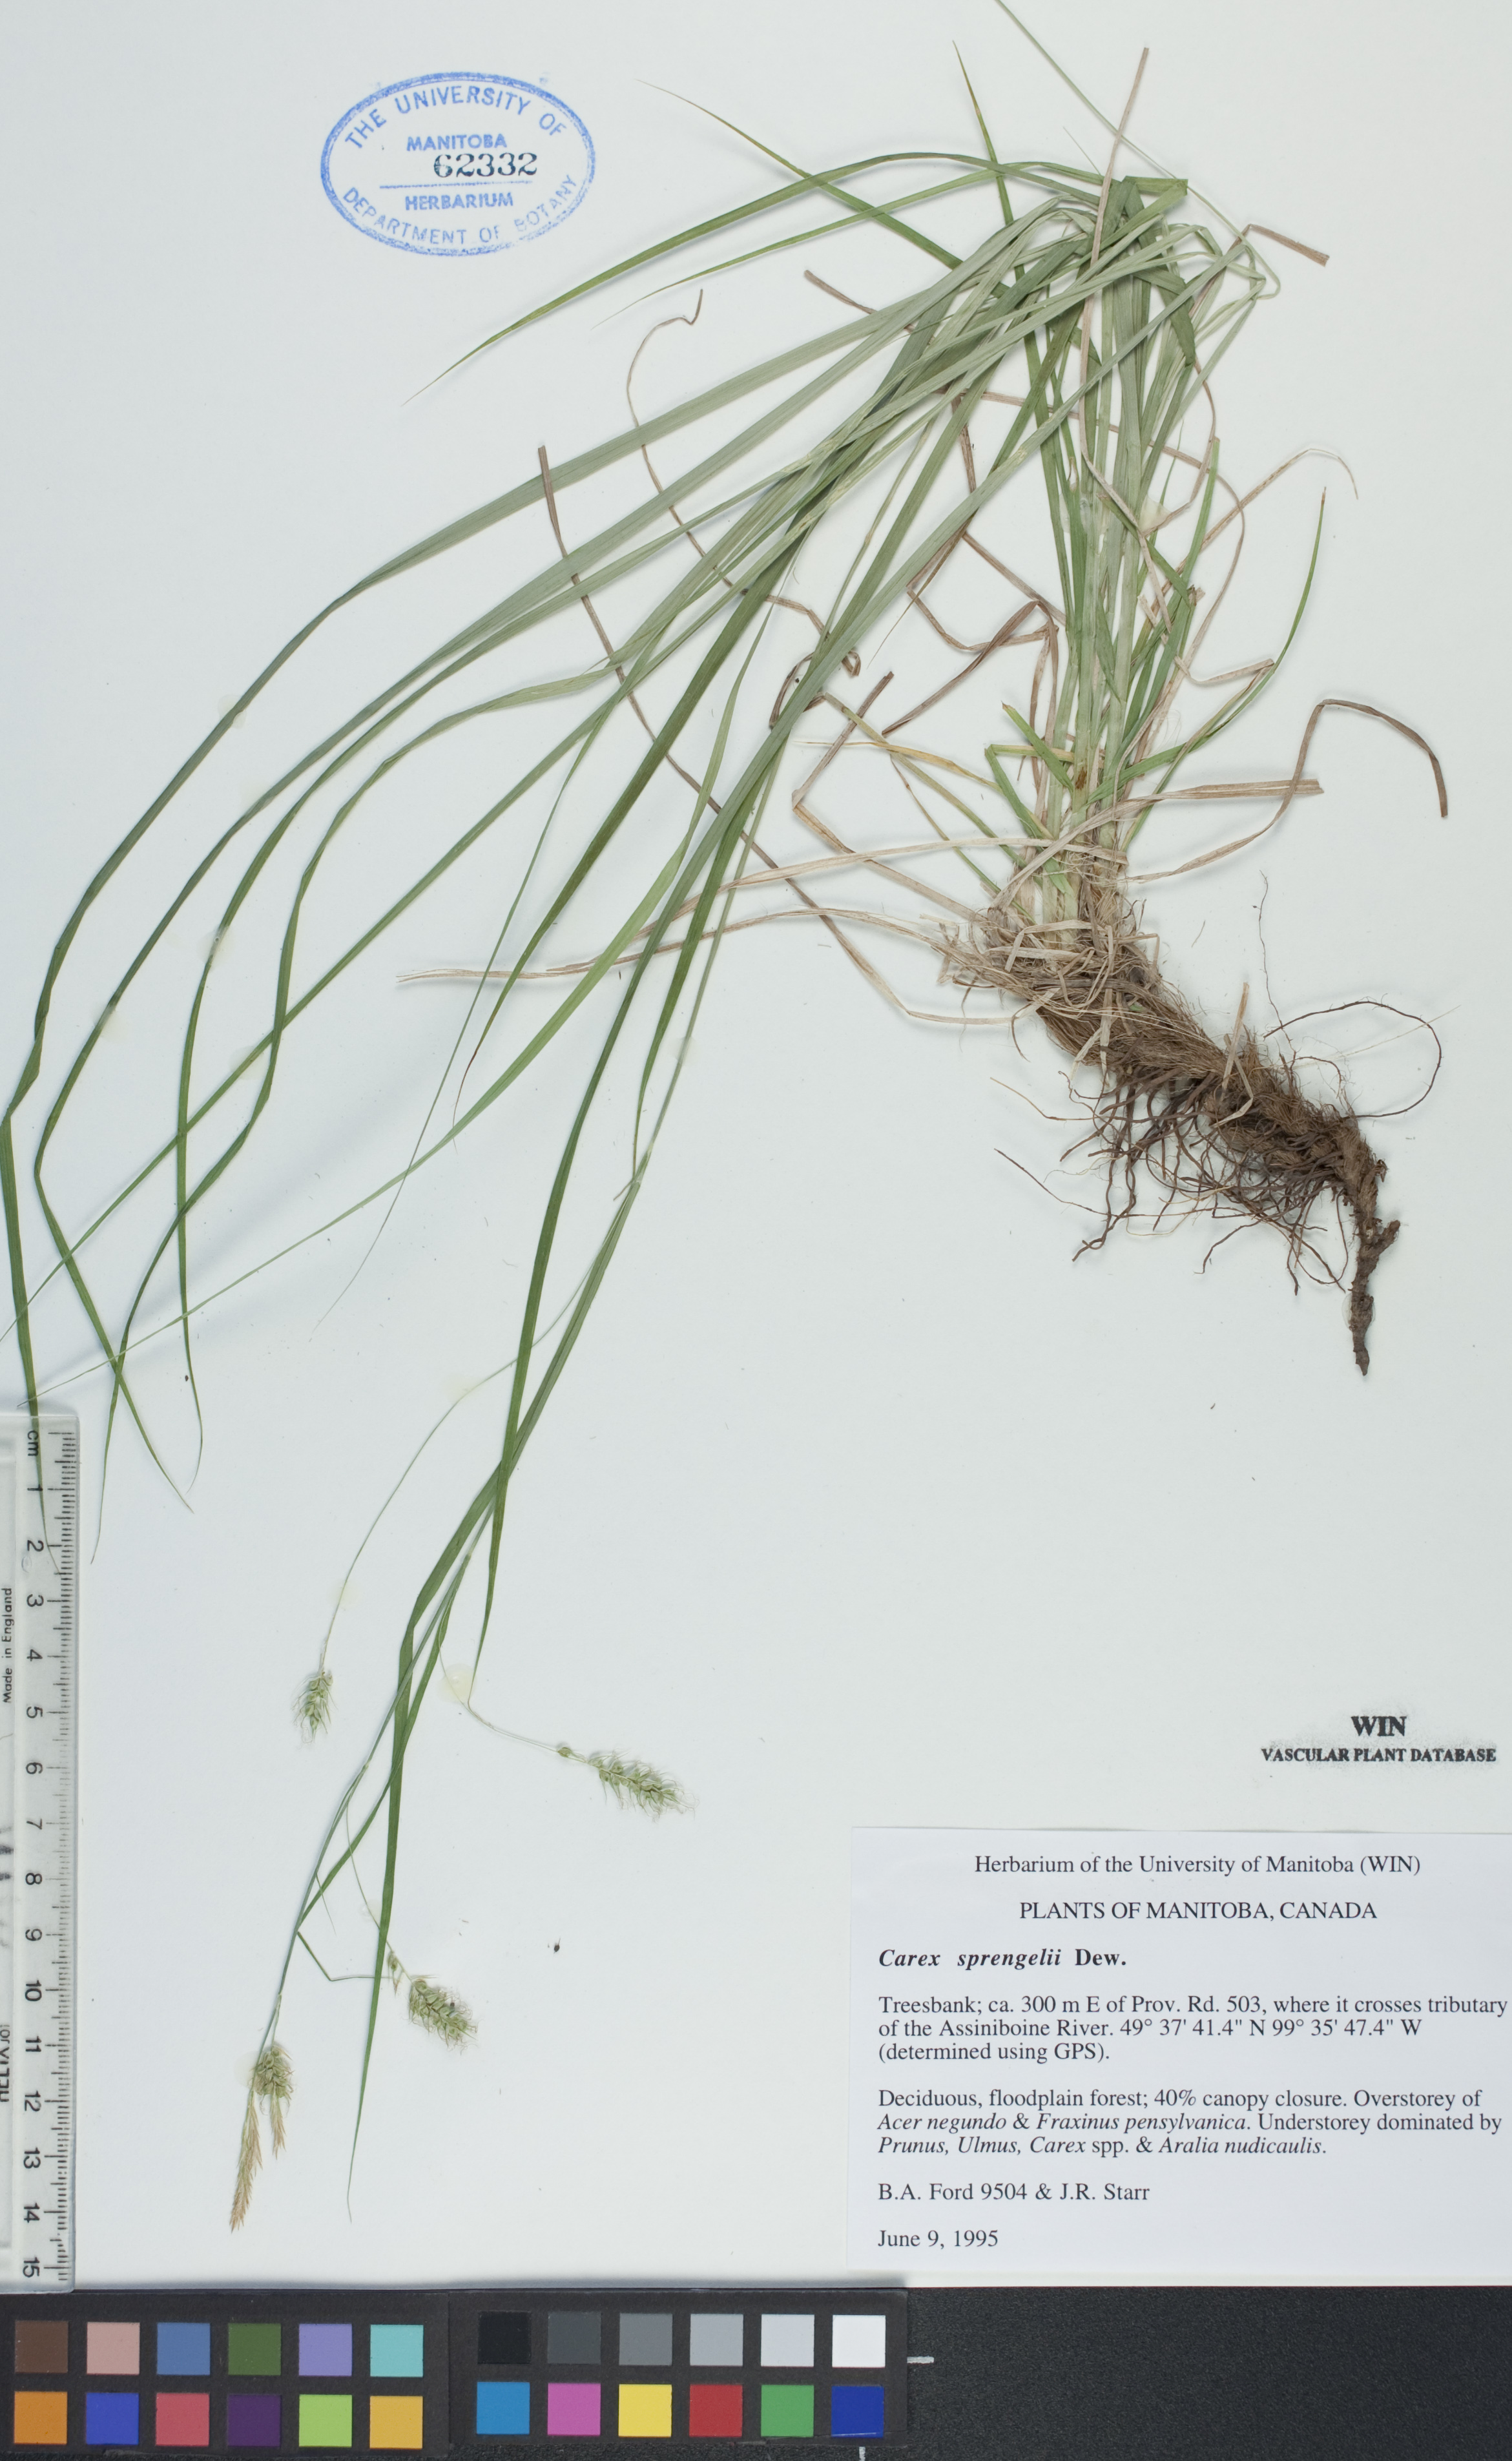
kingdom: Plantae
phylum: Tracheophyta
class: Liliopsida
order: Poales
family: Cyperaceae
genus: Carex
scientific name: Carex sprengelii
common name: Long-beaked sedge
